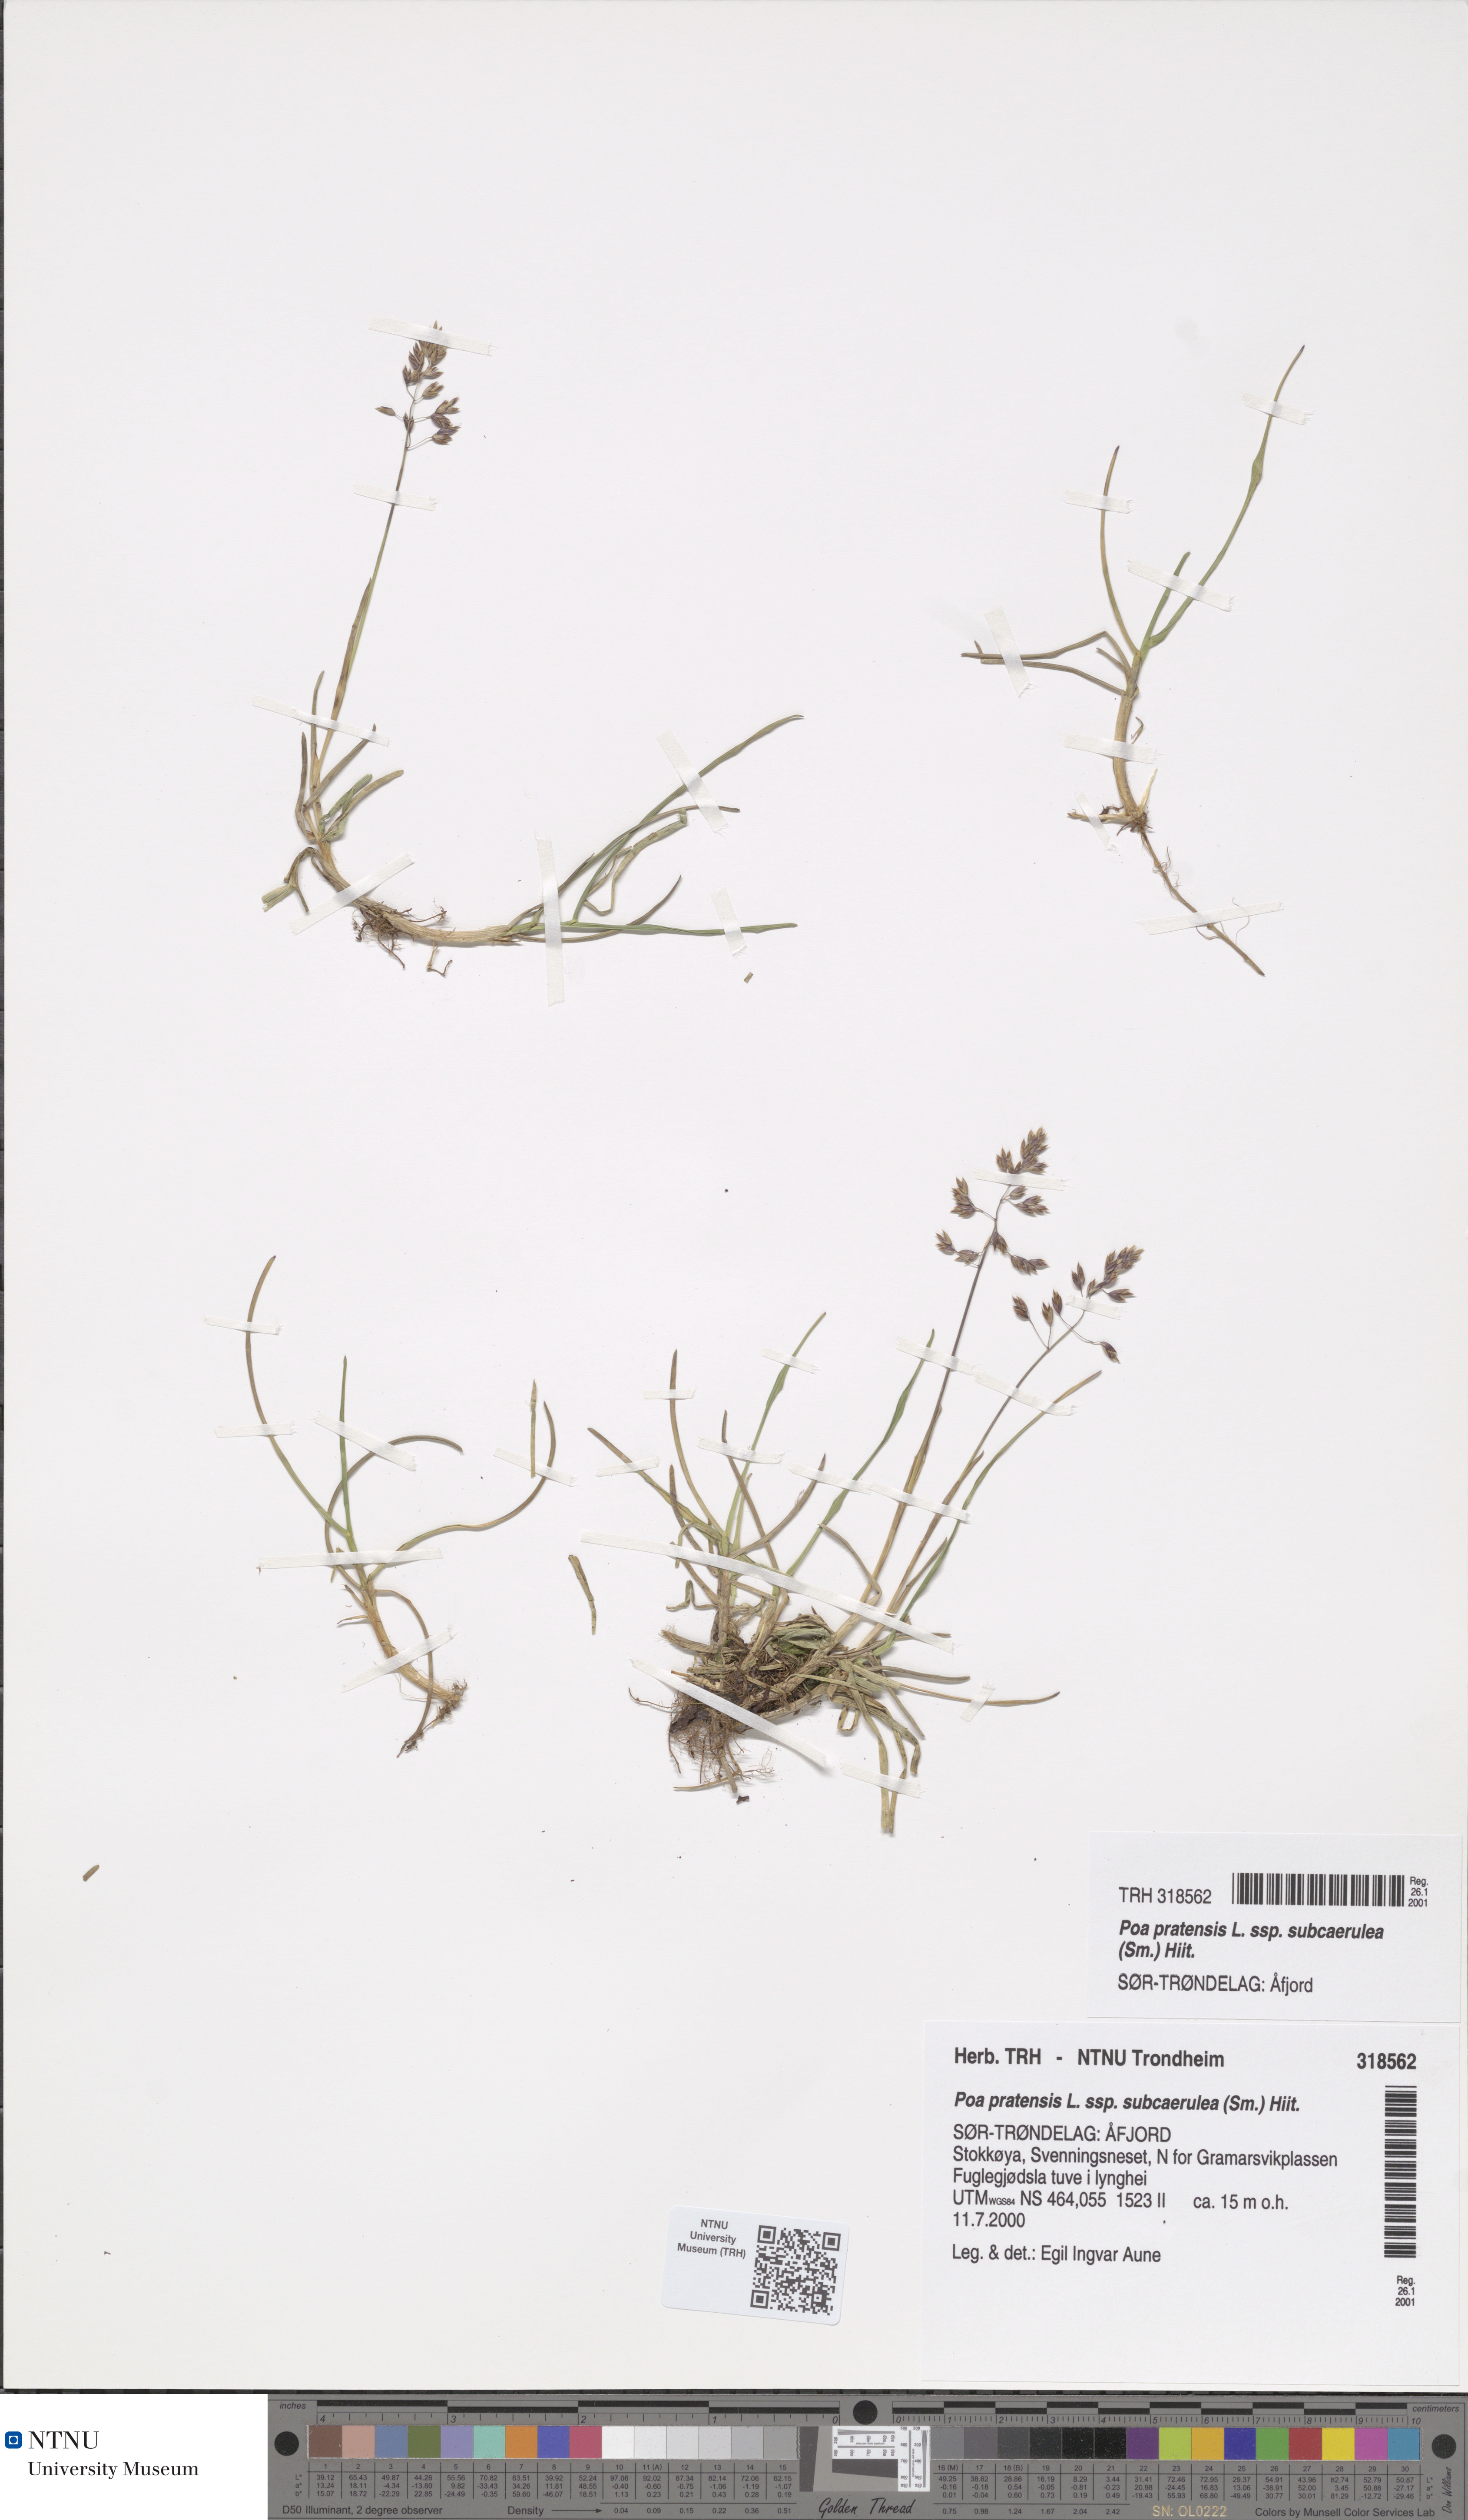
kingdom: Plantae
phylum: Tracheophyta
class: Liliopsida
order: Poales
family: Poaceae
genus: Poa
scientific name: Poa humilis
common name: Spreading meadow-grass
